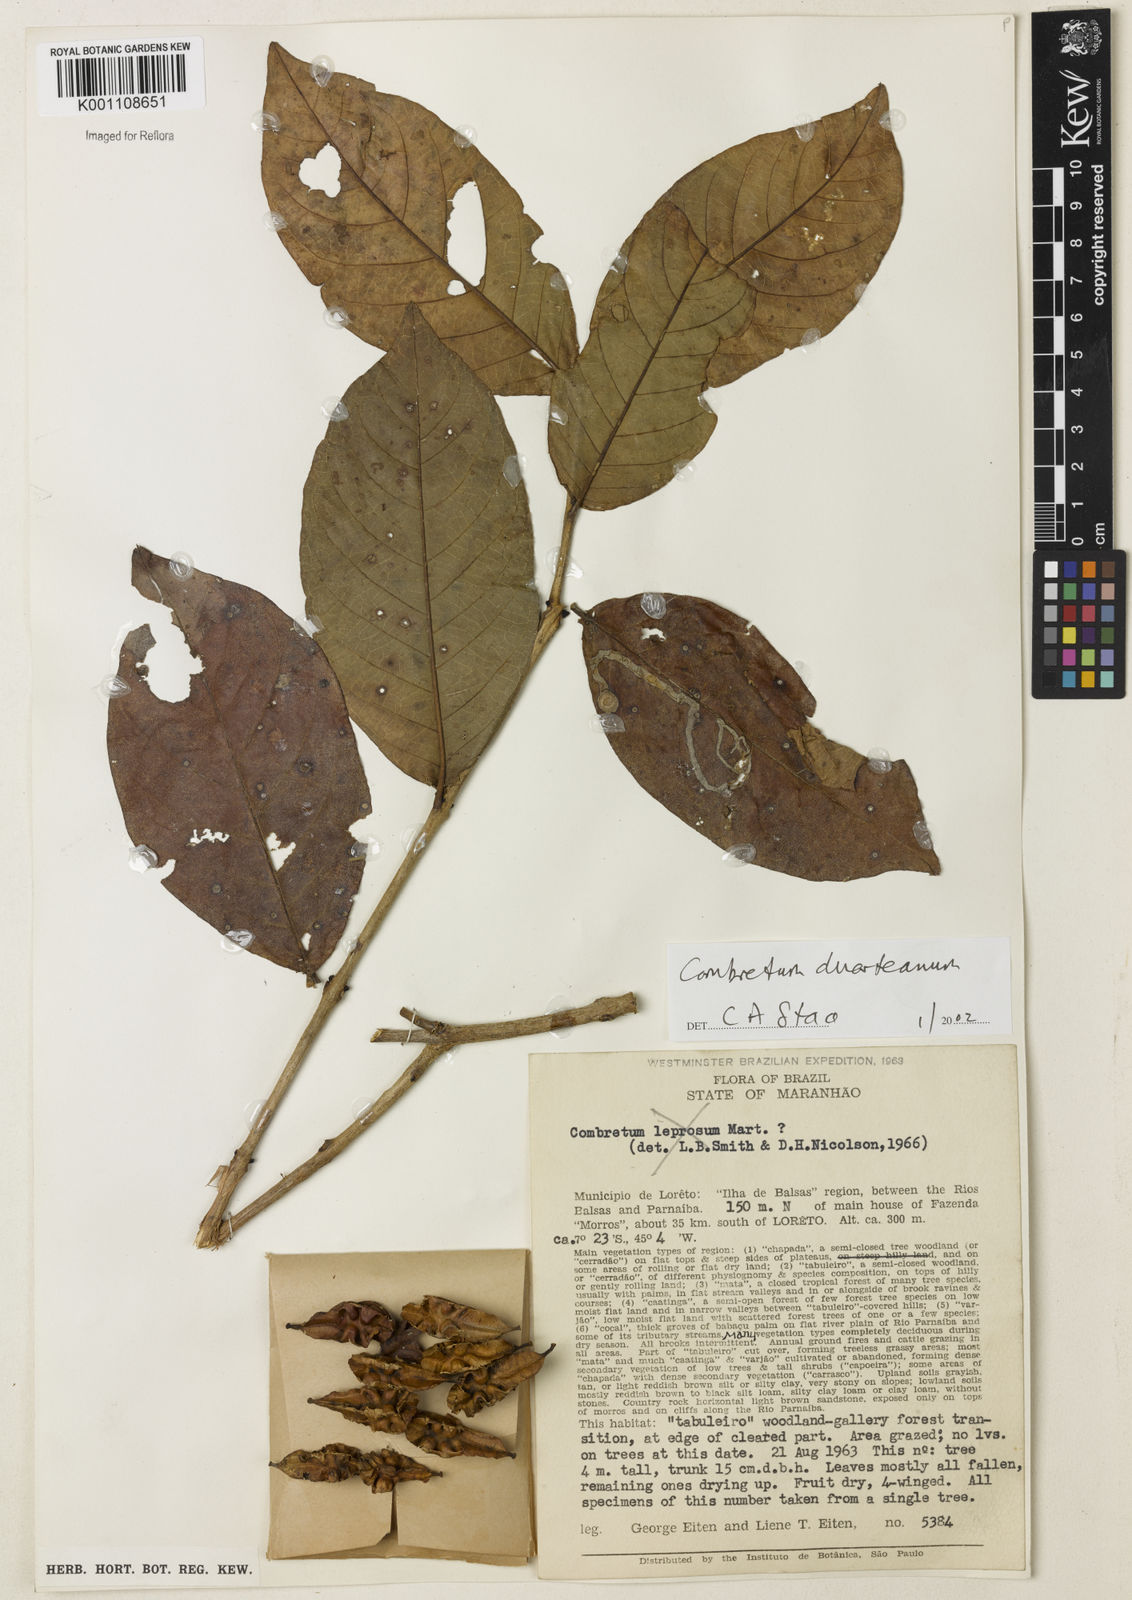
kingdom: Plantae
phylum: Tracheophyta
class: Magnoliopsida
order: Myrtales
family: Combretaceae
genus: Combretum
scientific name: Combretum duarteanum
